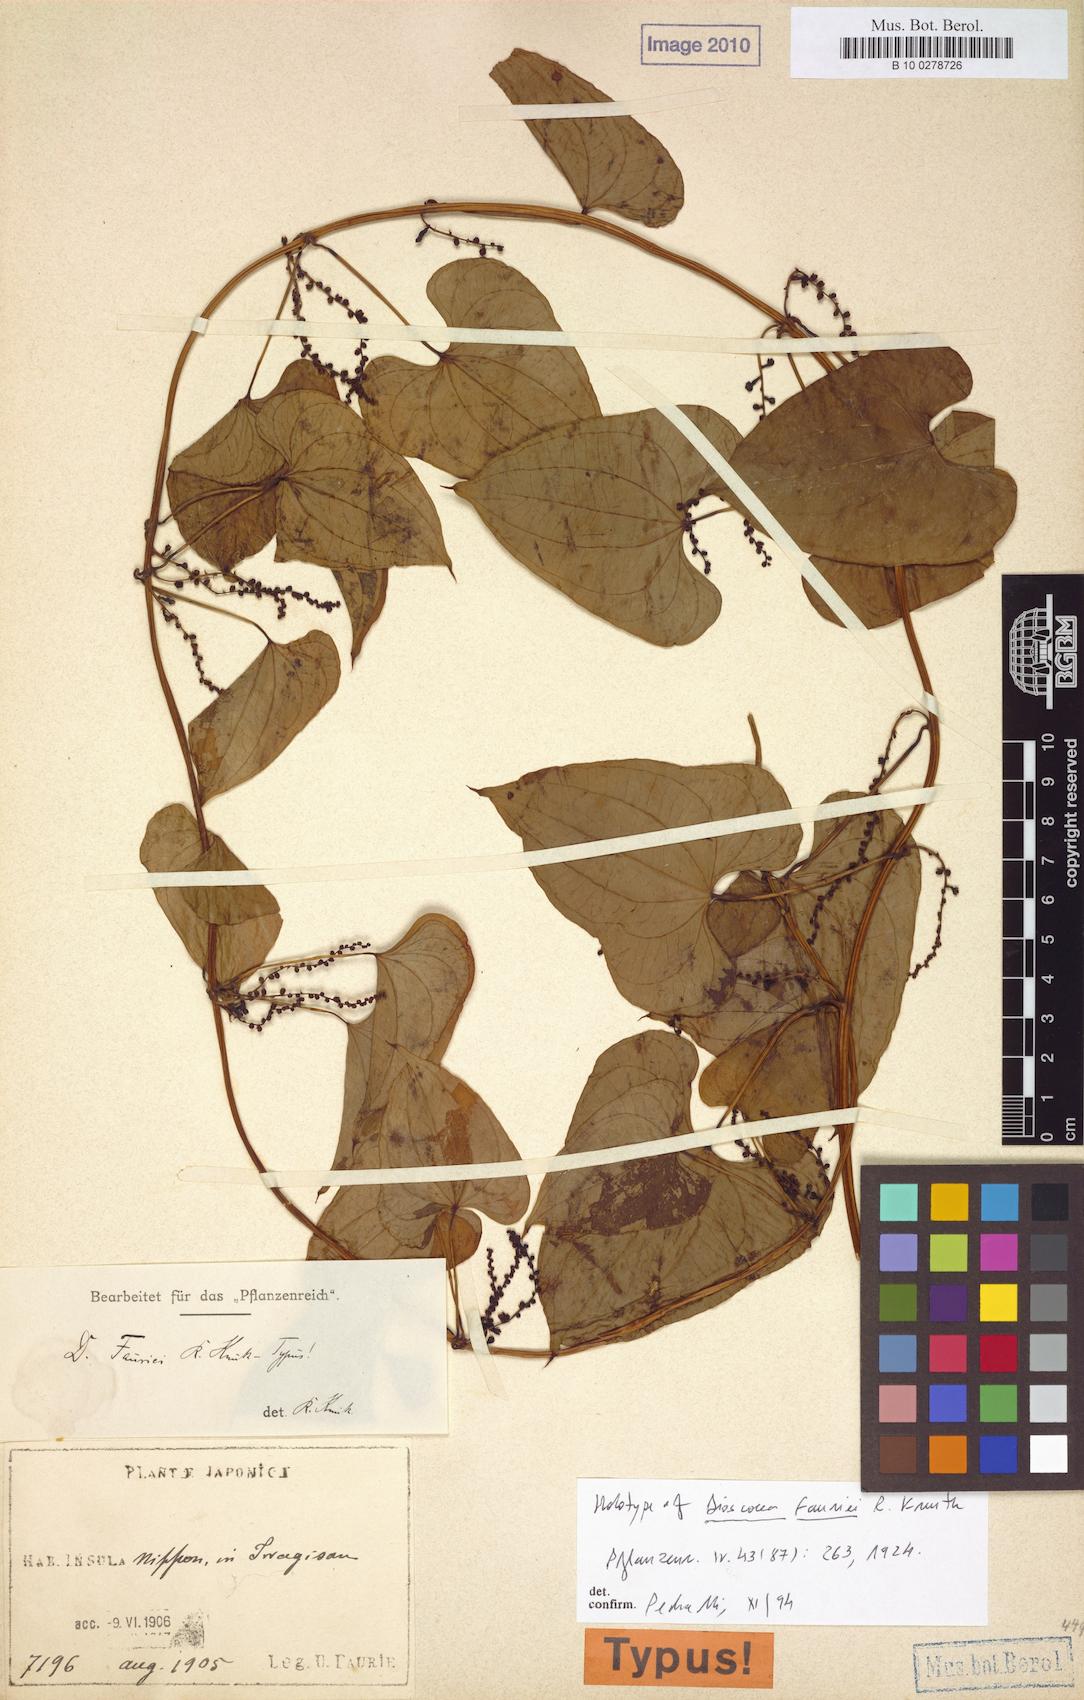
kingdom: Plantae
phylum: Tracheophyta
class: Liliopsida
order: Dioscoreales
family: Dioscoreaceae
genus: Dioscorea
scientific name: Dioscorea japonica
